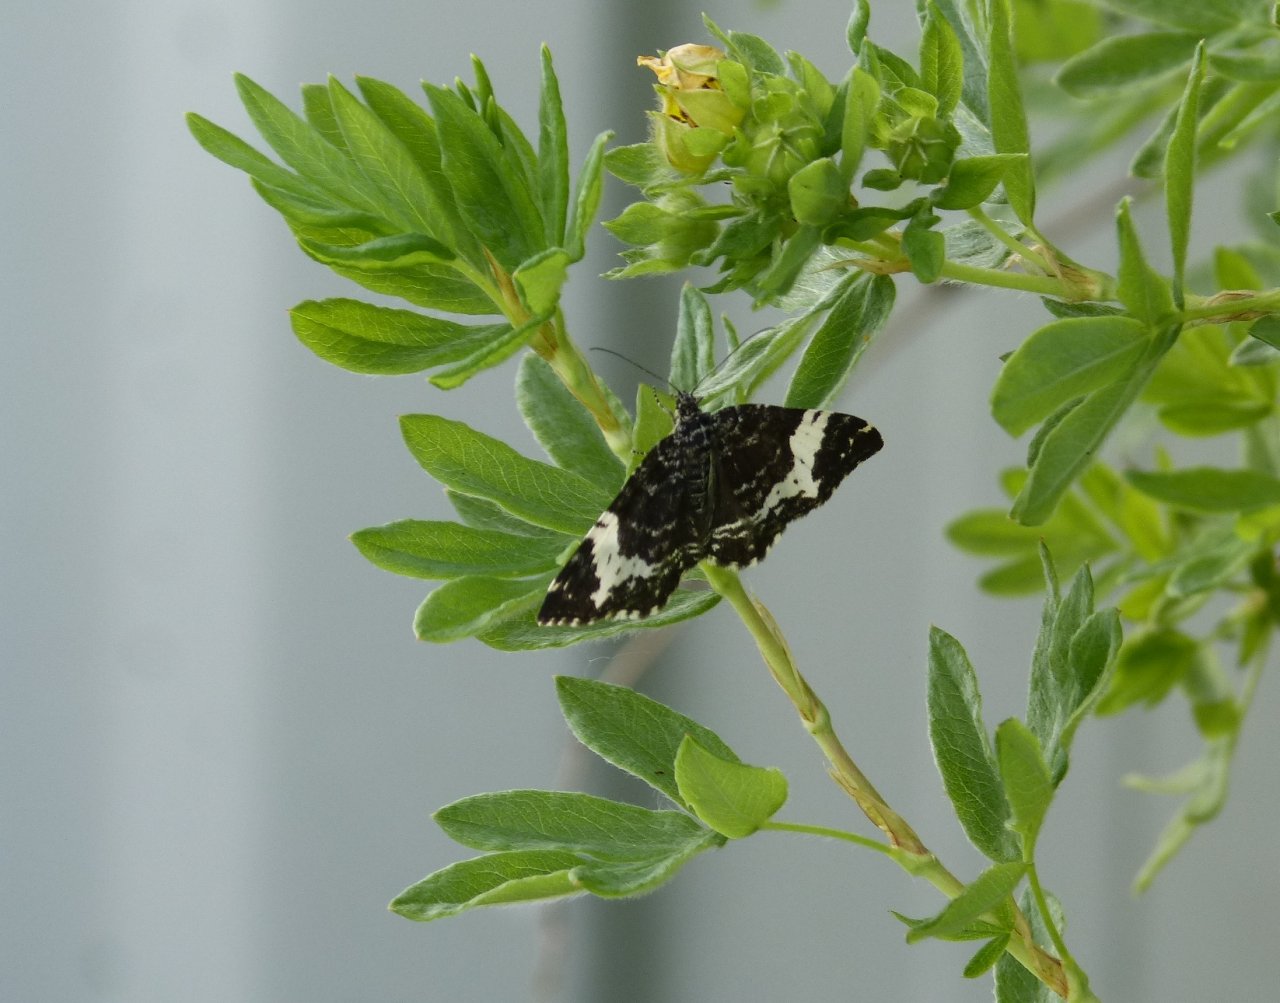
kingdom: Animalia
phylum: Arthropoda
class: Insecta
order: Lepidoptera
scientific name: Lepidoptera
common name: Butterflies
